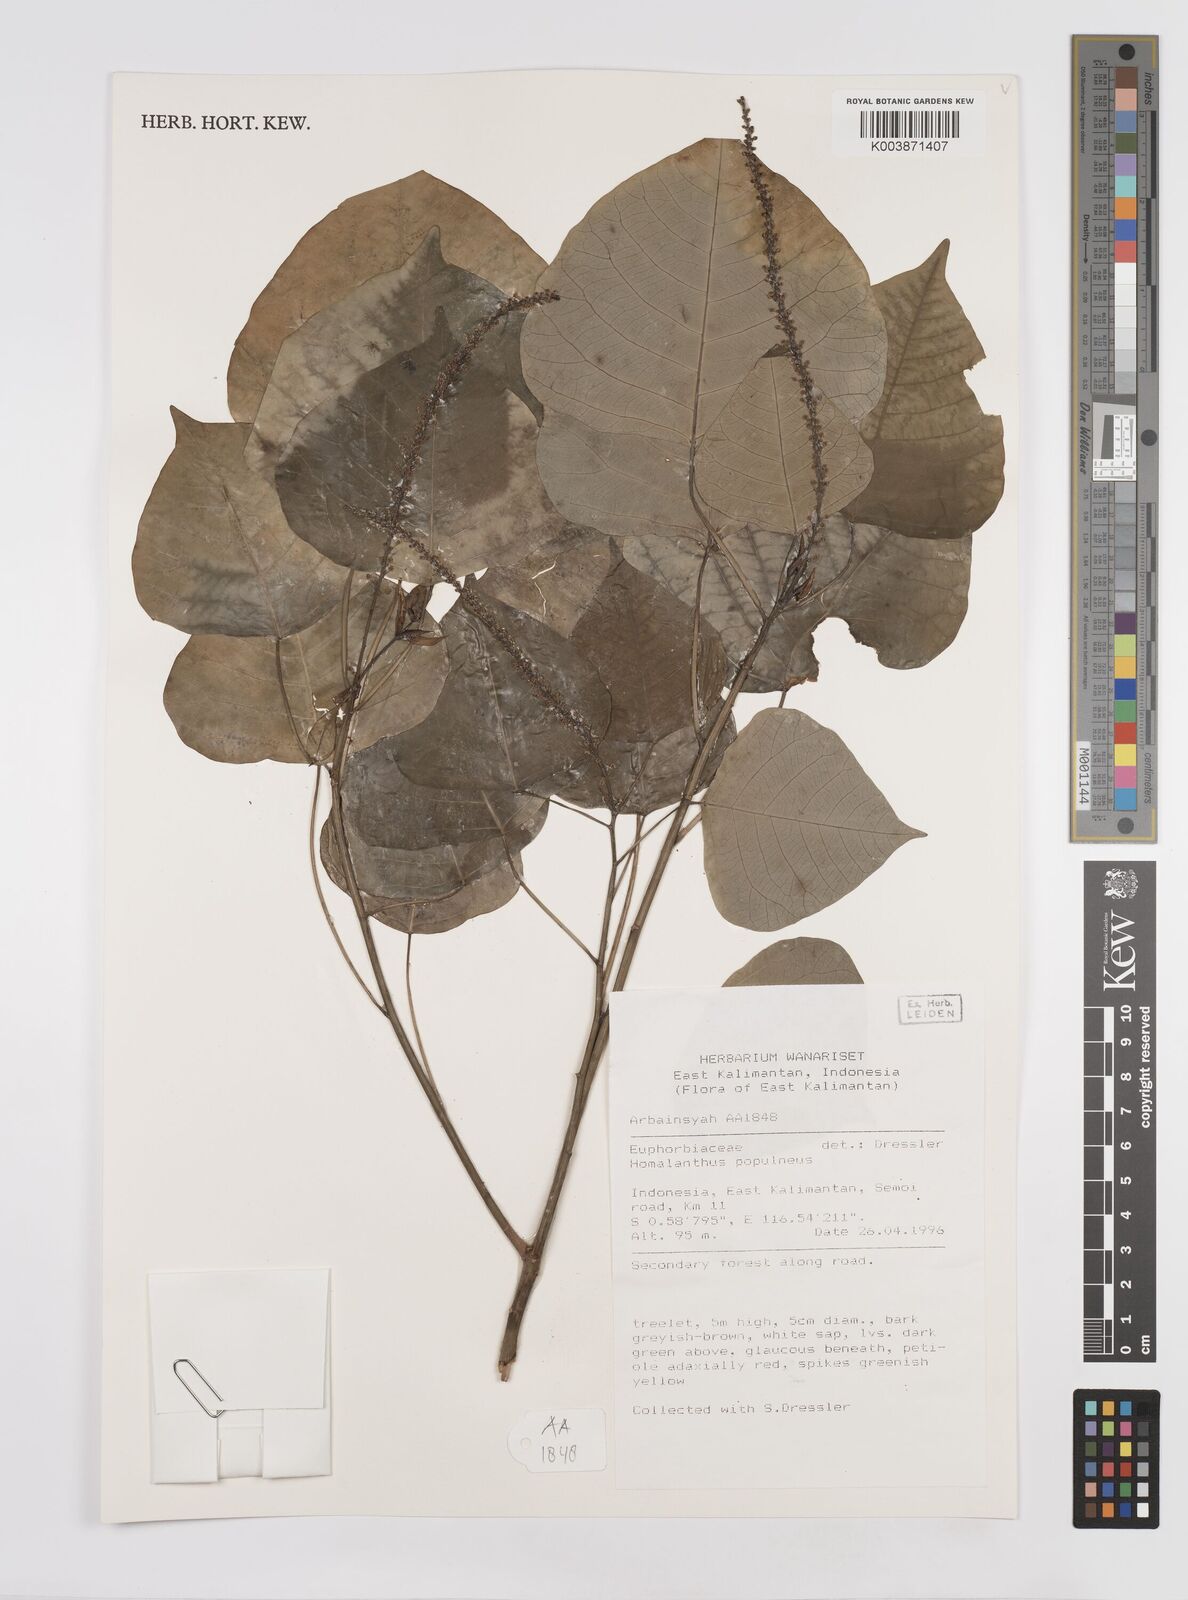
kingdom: Plantae
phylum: Tracheophyta
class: Magnoliopsida
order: Malpighiales
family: Euphorbiaceae
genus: Homalanthus
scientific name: Homalanthus populneus
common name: Spurge
